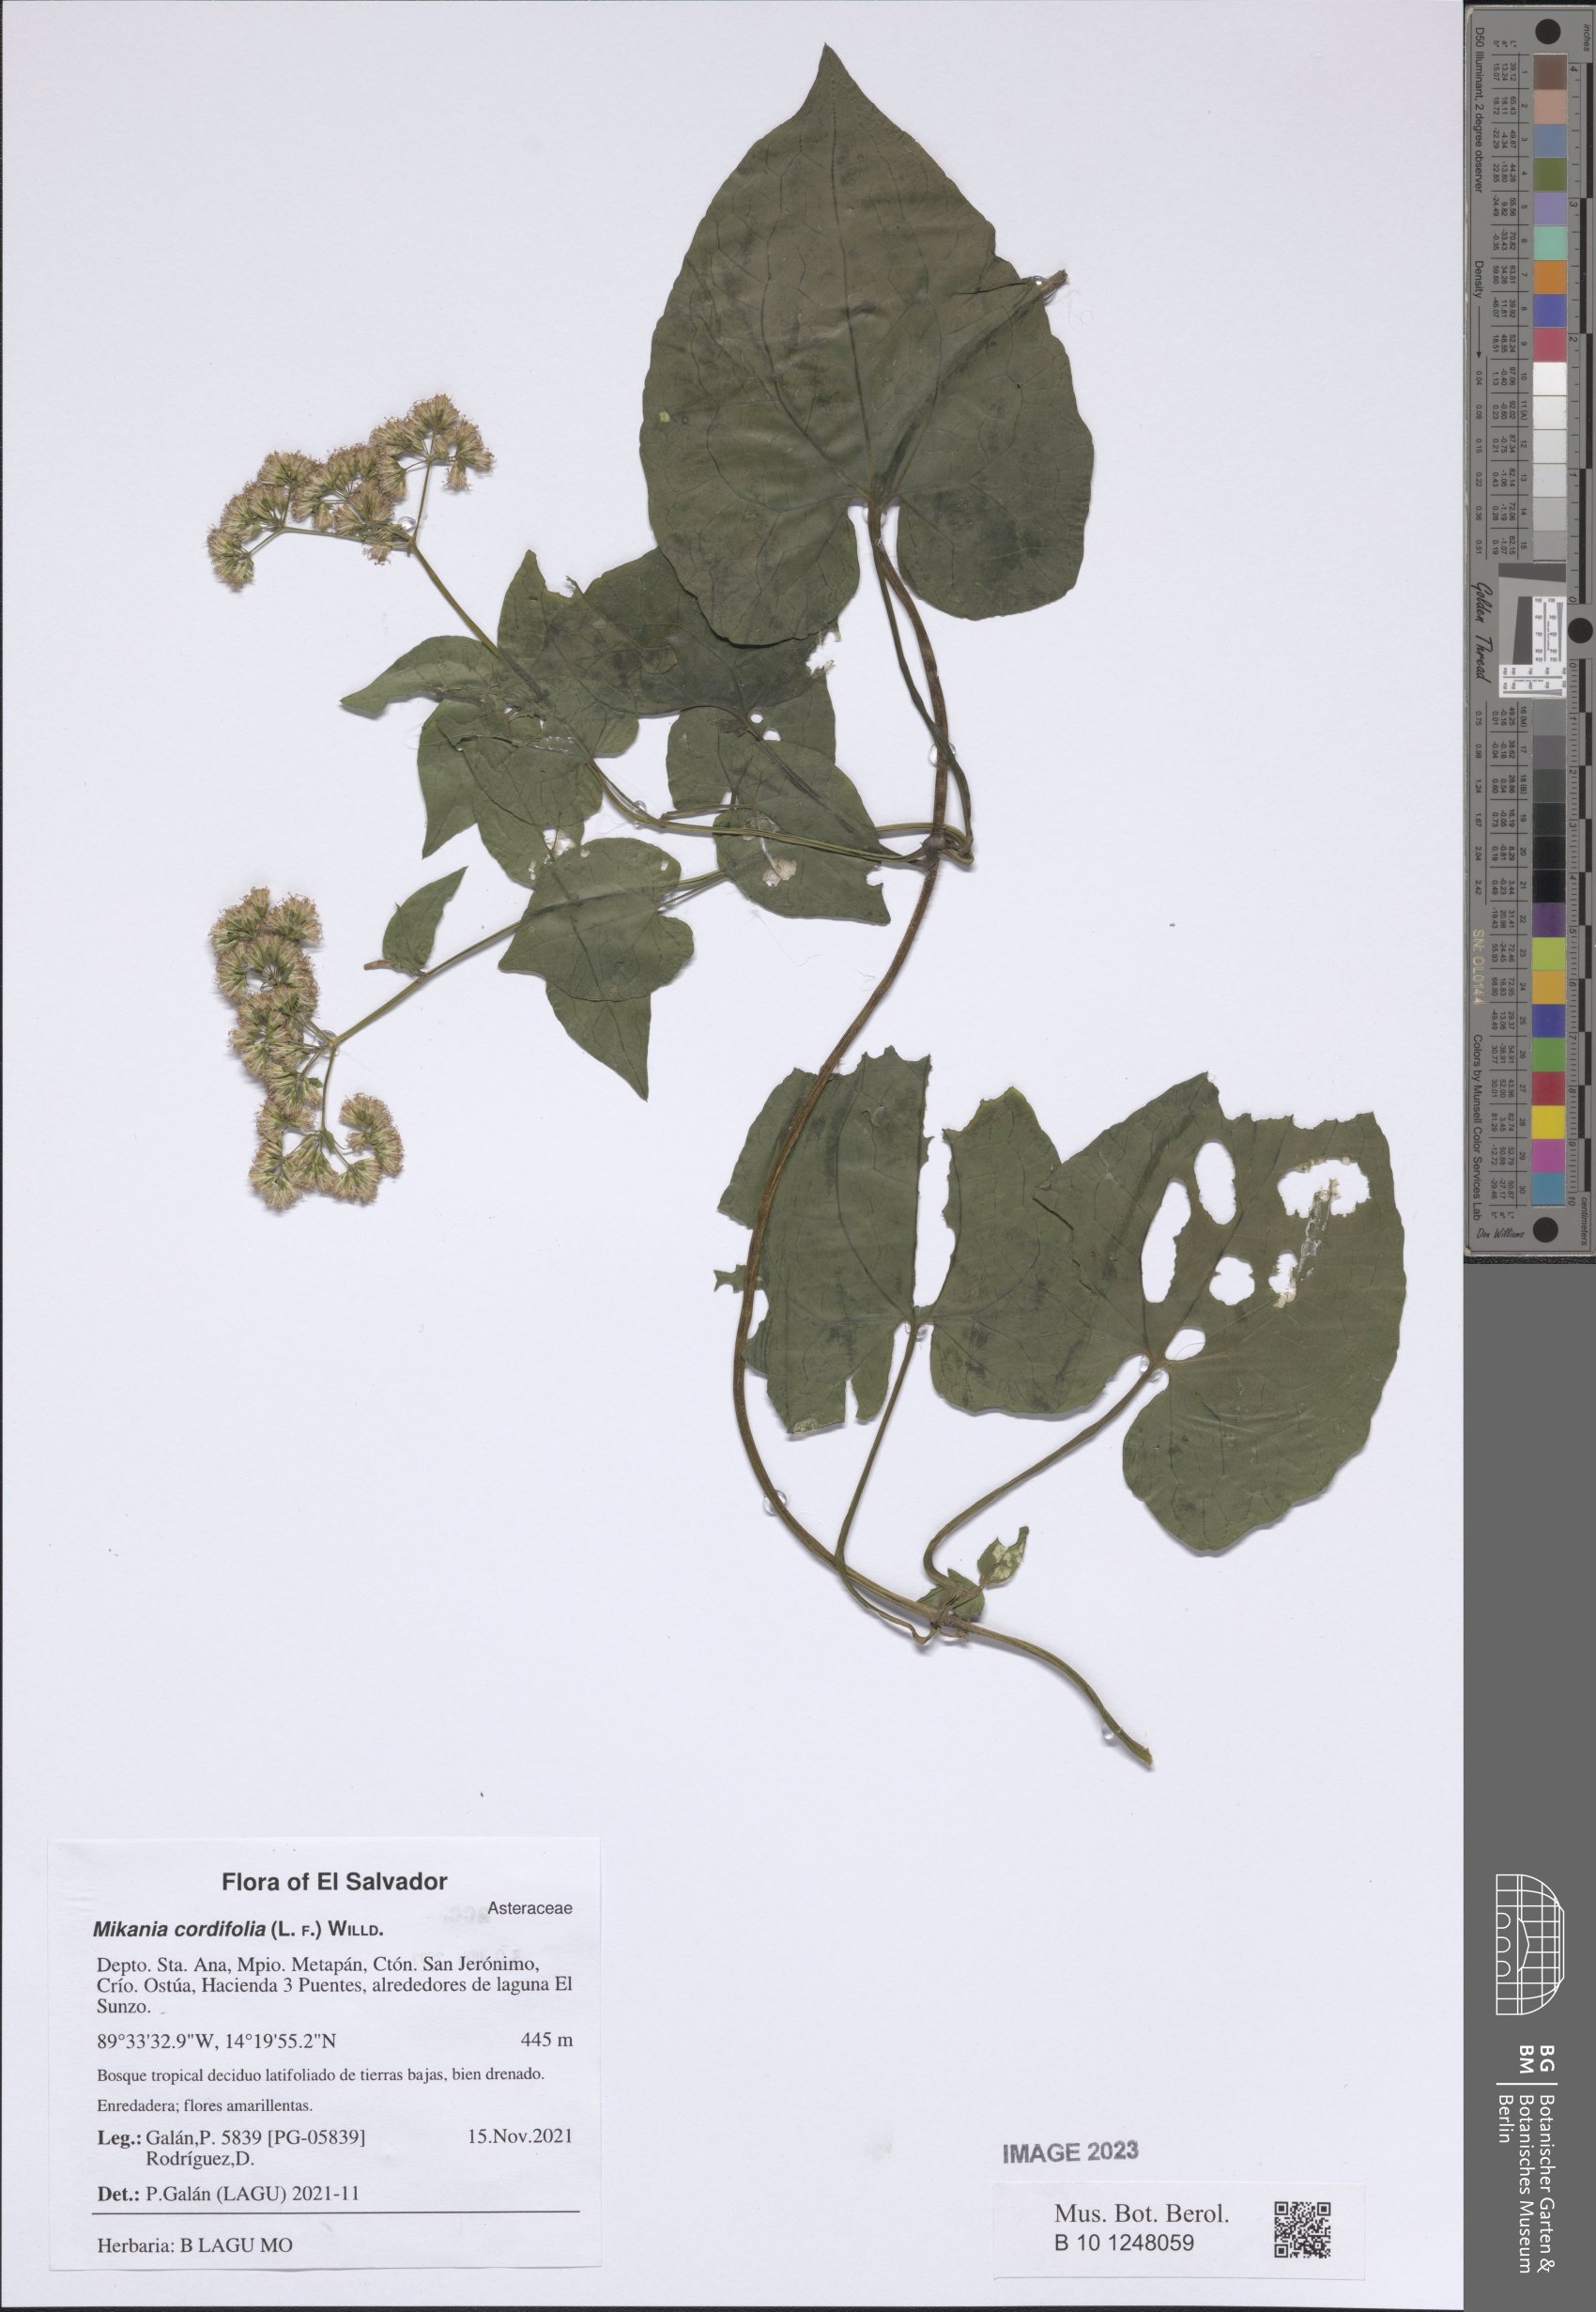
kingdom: Plantae
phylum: Tracheophyta
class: Magnoliopsida
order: Asterales
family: Asteraceae
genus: Mikania
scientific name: Mikania cordifolia
